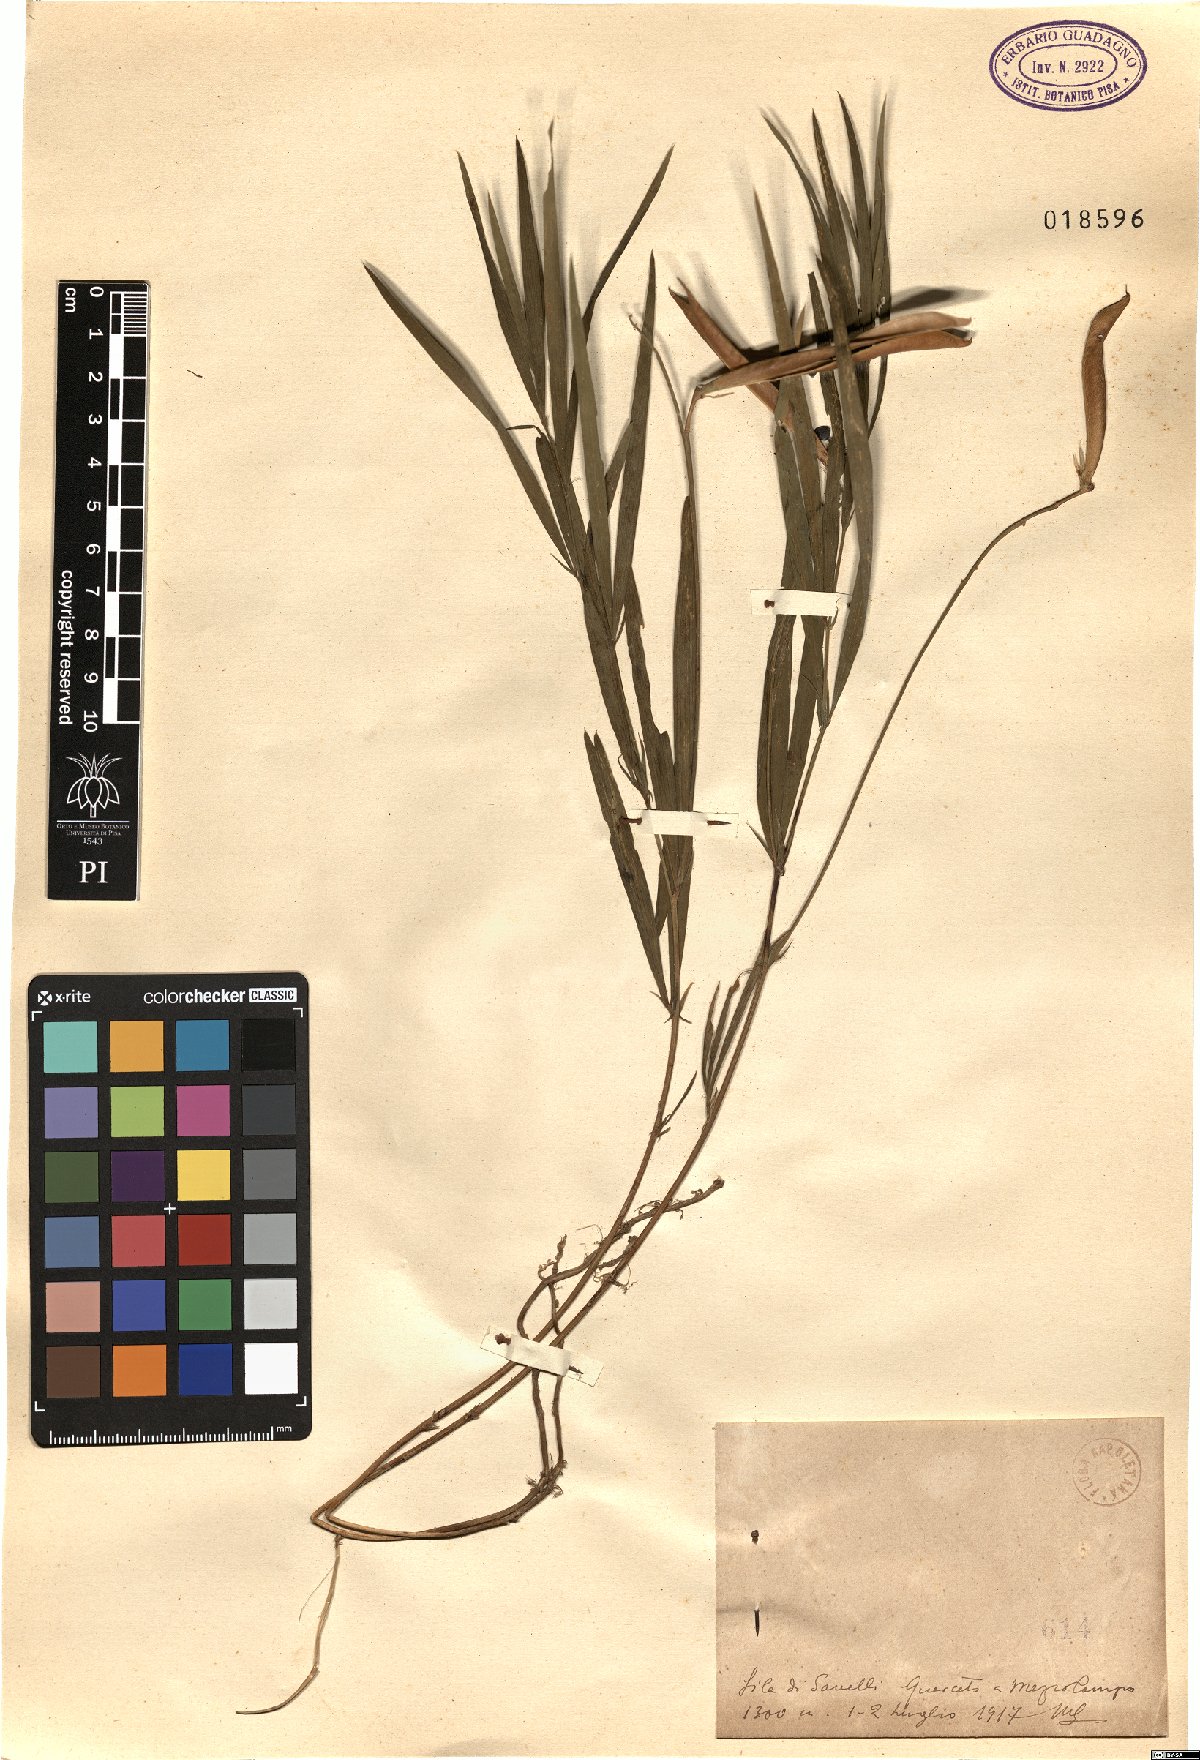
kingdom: Plantae
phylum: Tracheophyta
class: Magnoliopsida
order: Fabales
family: Fabaceae
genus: Lathyrus
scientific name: Lathyrus
